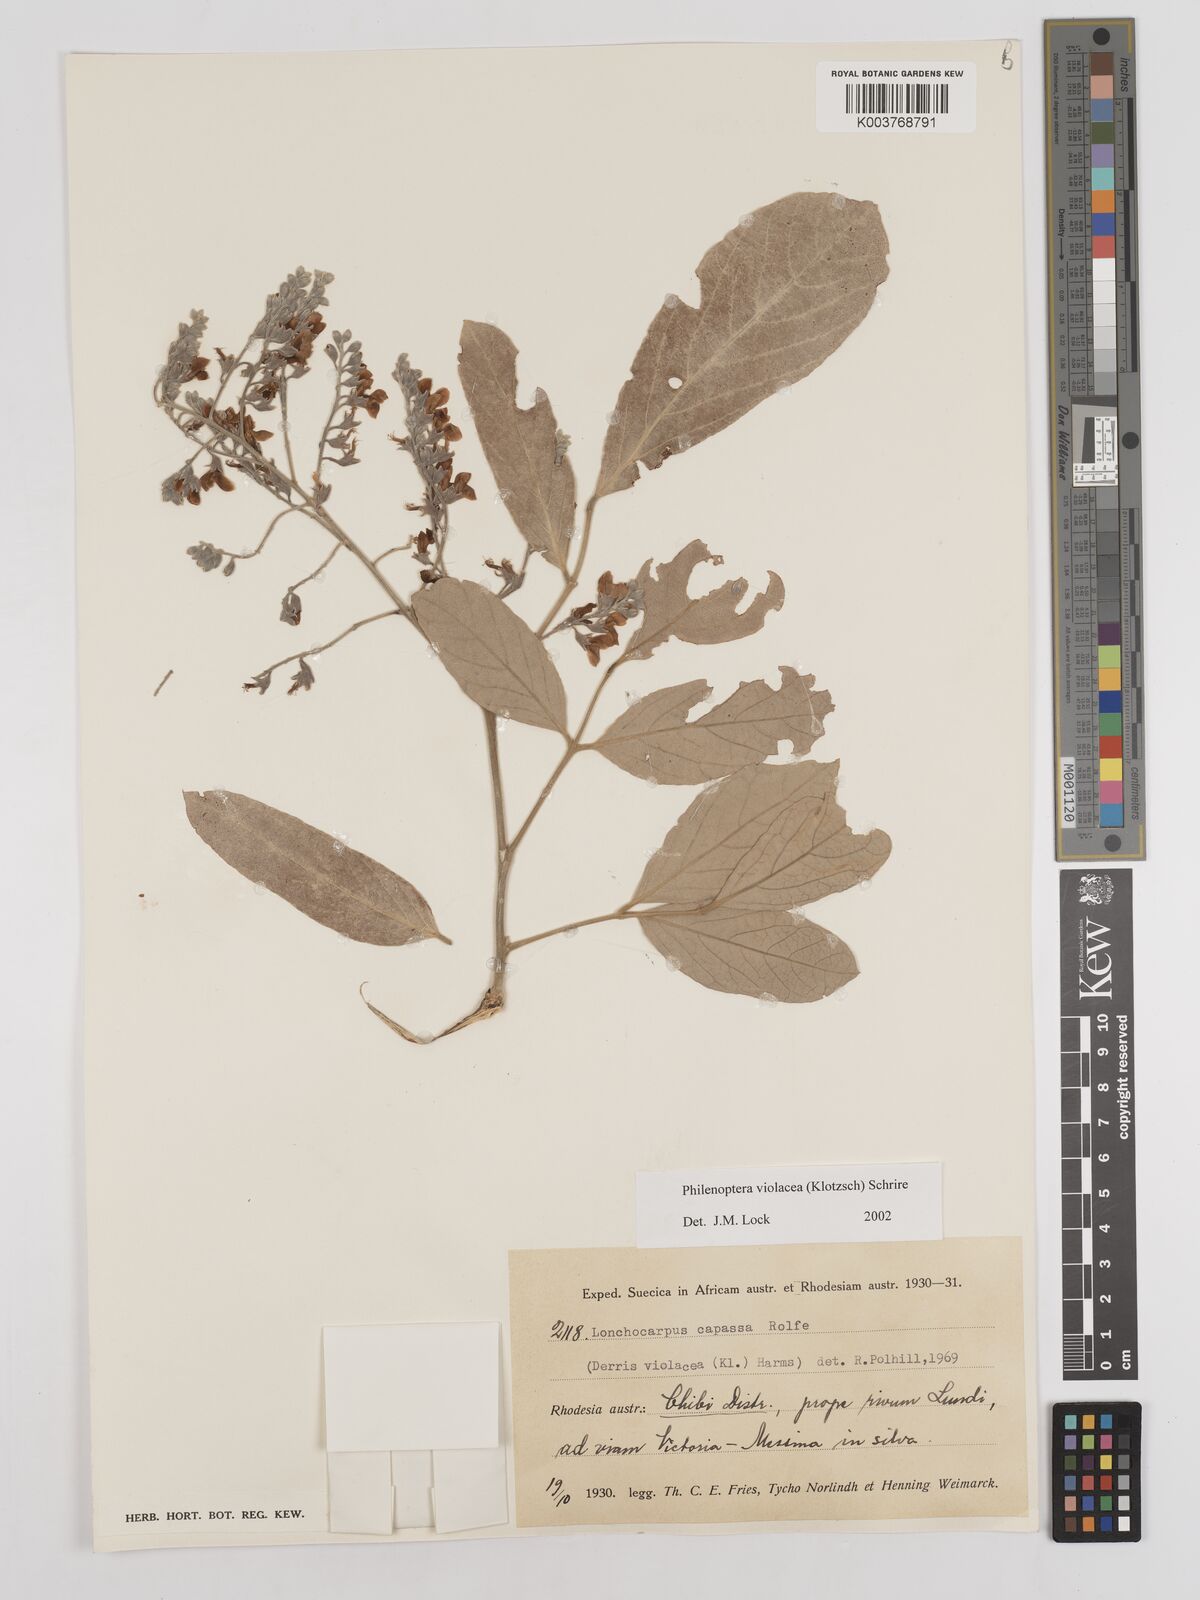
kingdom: Plantae
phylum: Tracheophyta
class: Magnoliopsida
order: Fabales
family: Fabaceae
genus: Philenoptera
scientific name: Philenoptera violacea
